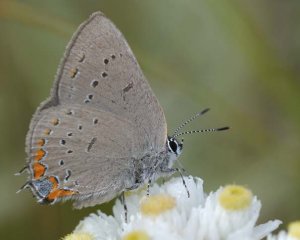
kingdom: Animalia
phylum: Arthropoda
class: Insecta
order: Lepidoptera
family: Lycaenidae
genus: Strymon
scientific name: Strymon acadica
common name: Acadian Hairstreak
